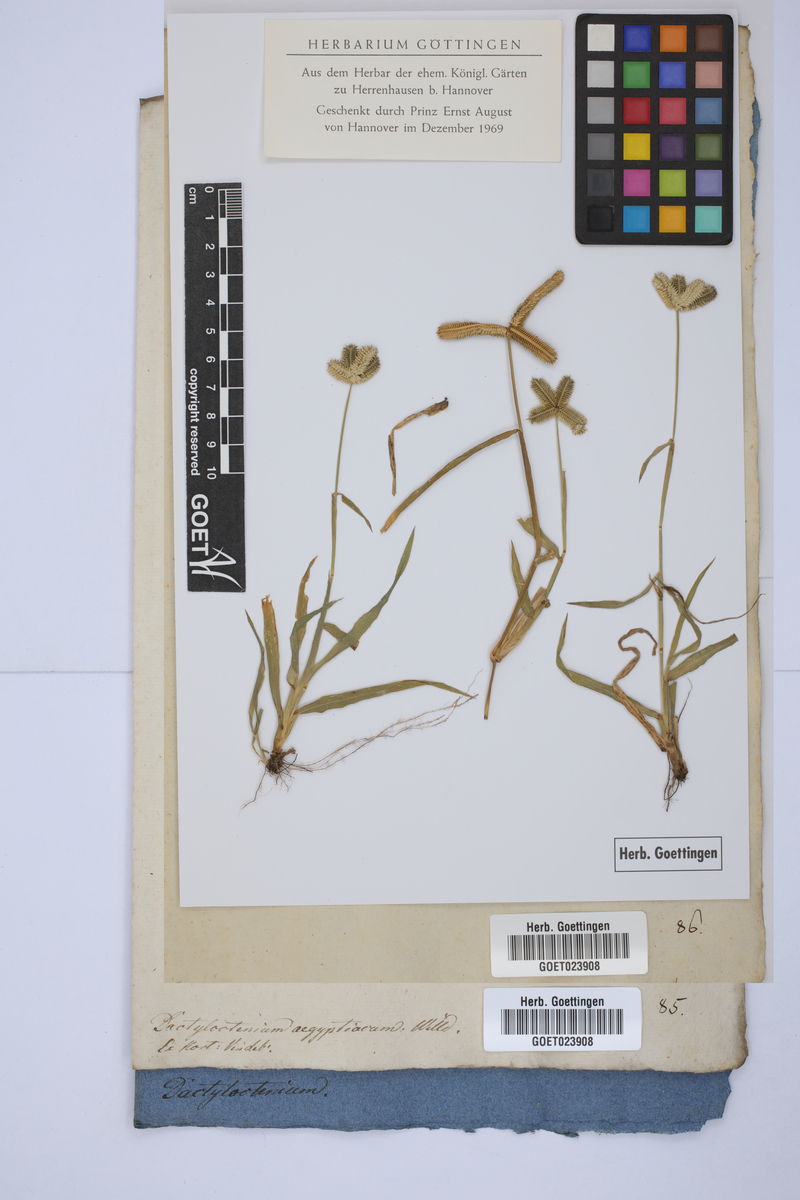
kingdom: Plantae
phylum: Tracheophyta
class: Liliopsida
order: Poales
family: Poaceae
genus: Dactyloctenium
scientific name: Dactyloctenium aegyptium
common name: Egyptian grass
